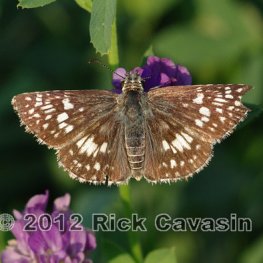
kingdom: Animalia
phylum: Arthropoda
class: Insecta
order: Lepidoptera
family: Hesperiidae
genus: Pyrgus
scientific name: Pyrgus communis
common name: Common Checkered-Skipper
